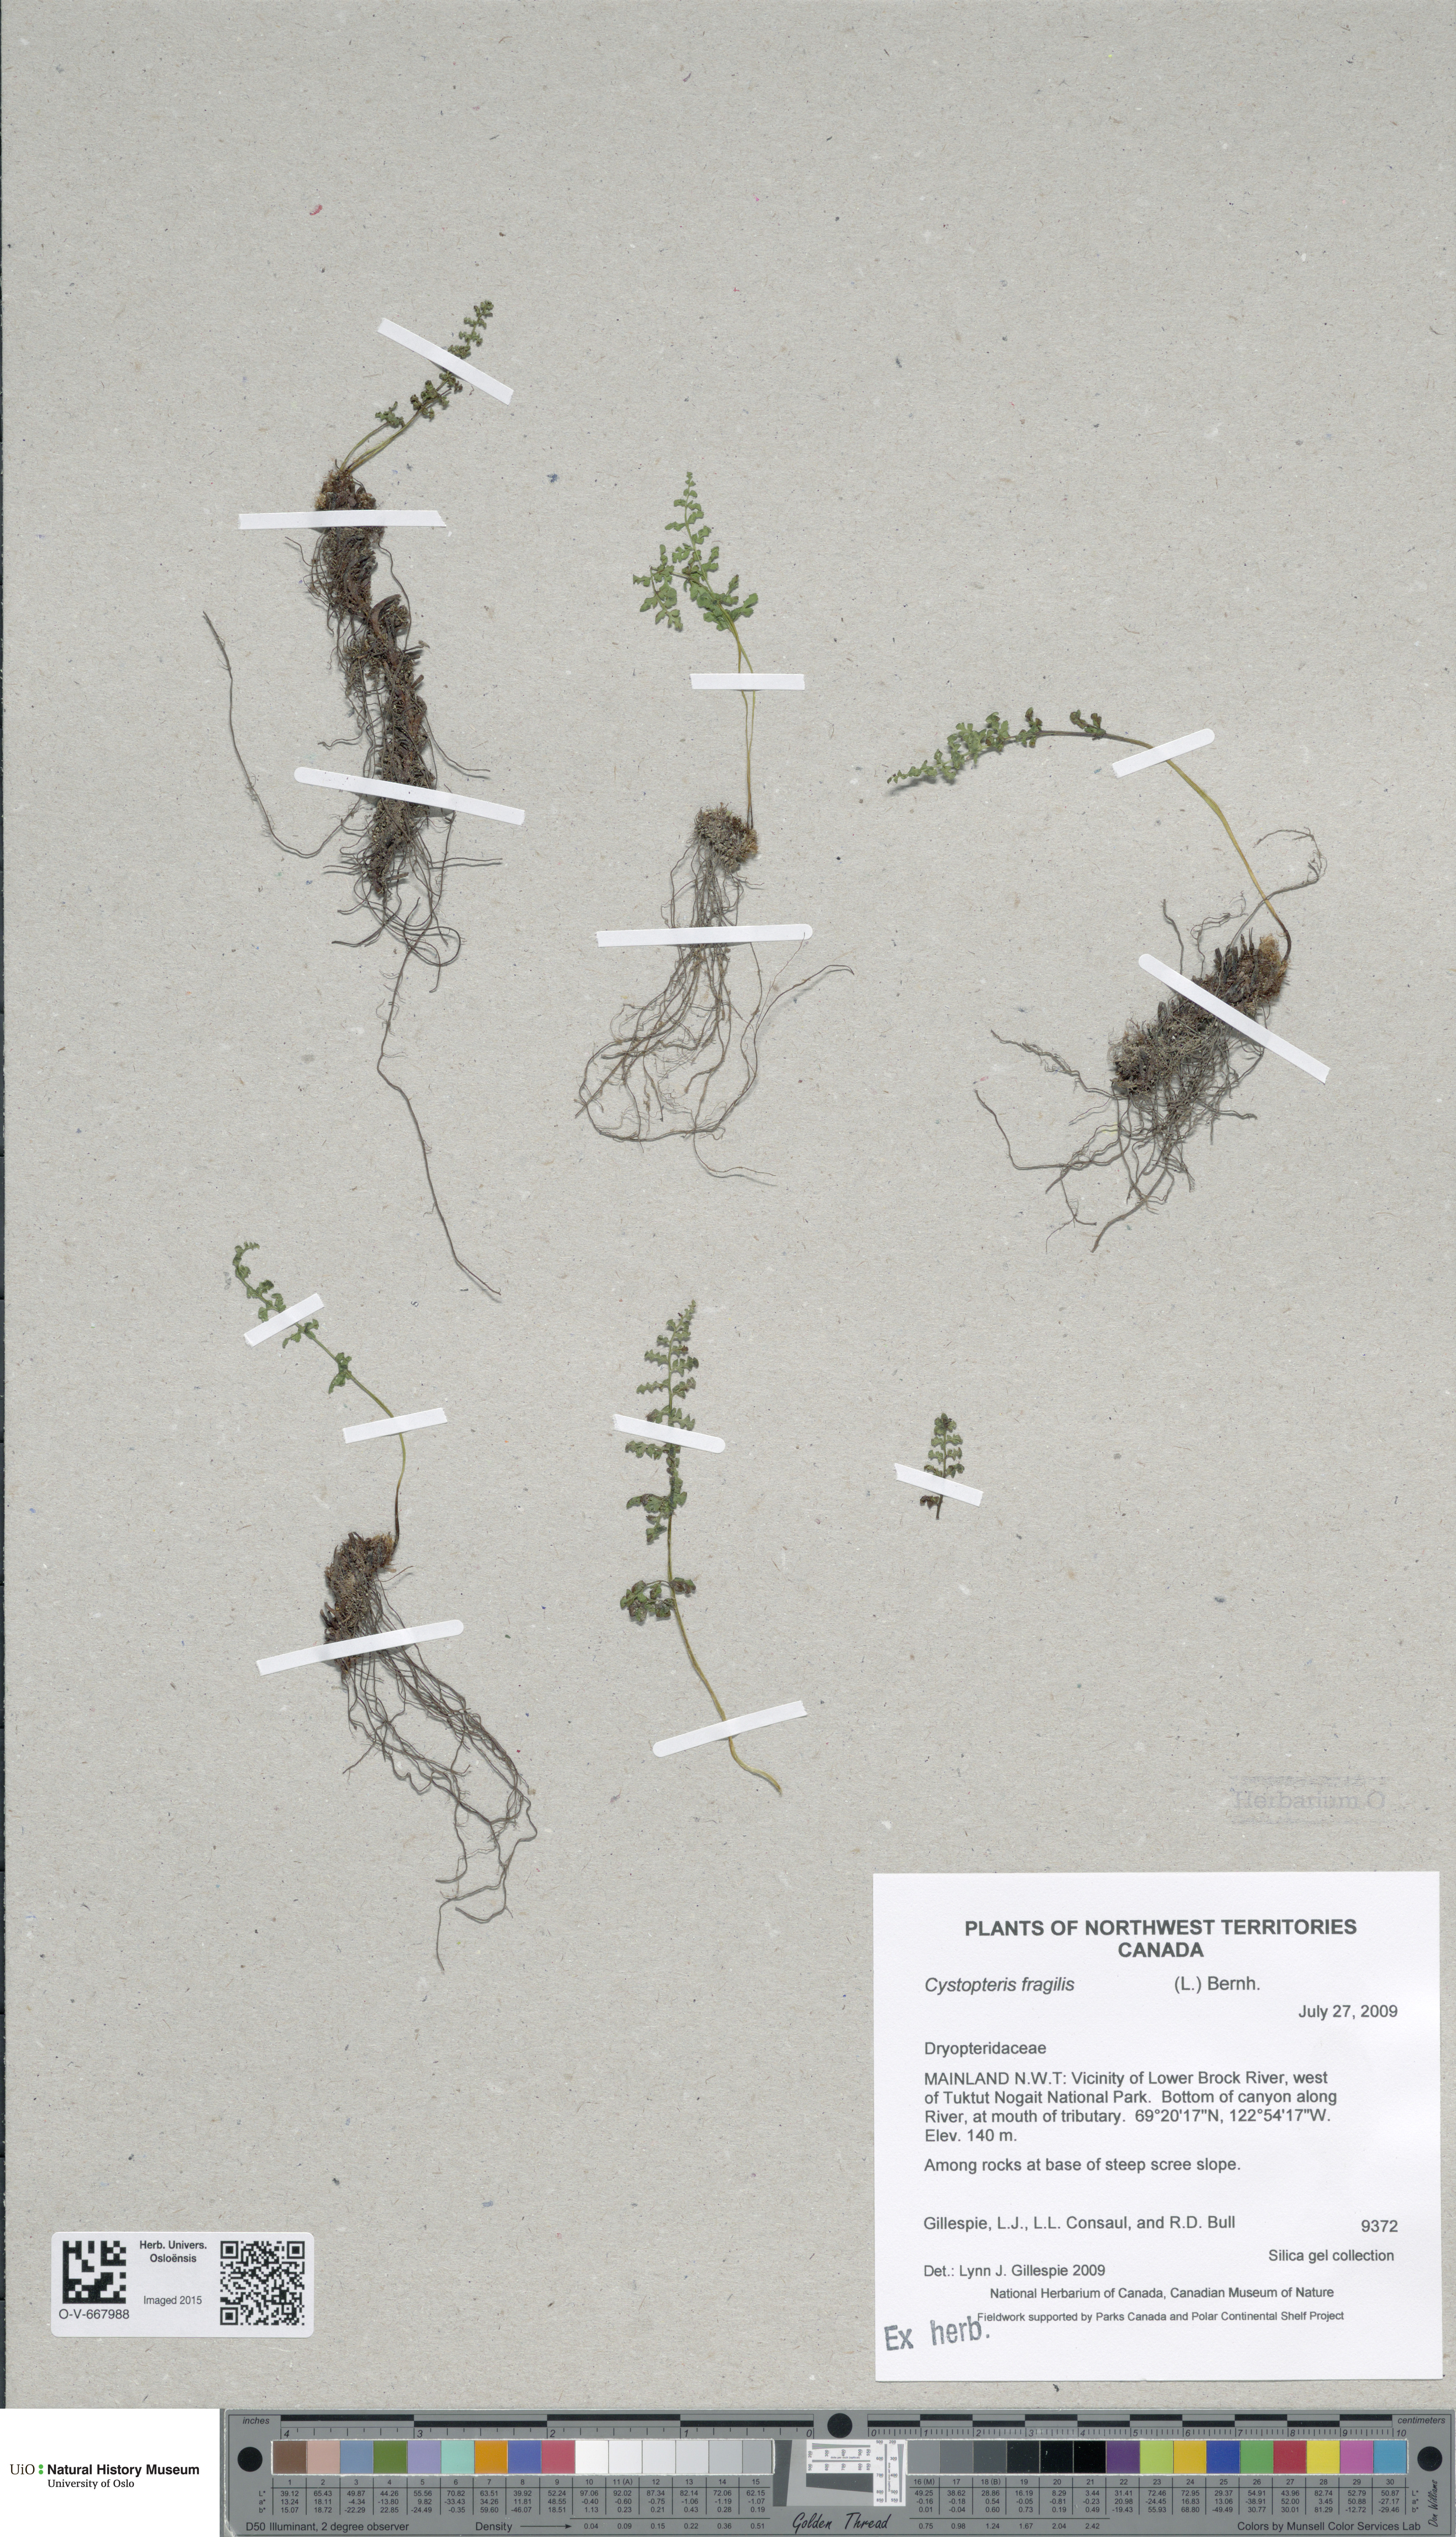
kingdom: Plantae
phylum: Tracheophyta
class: Polypodiopsida
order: Polypodiales
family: Cystopteridaceae
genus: Cystopteris
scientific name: Cystopteris fragilis
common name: Brittle bladder fern
